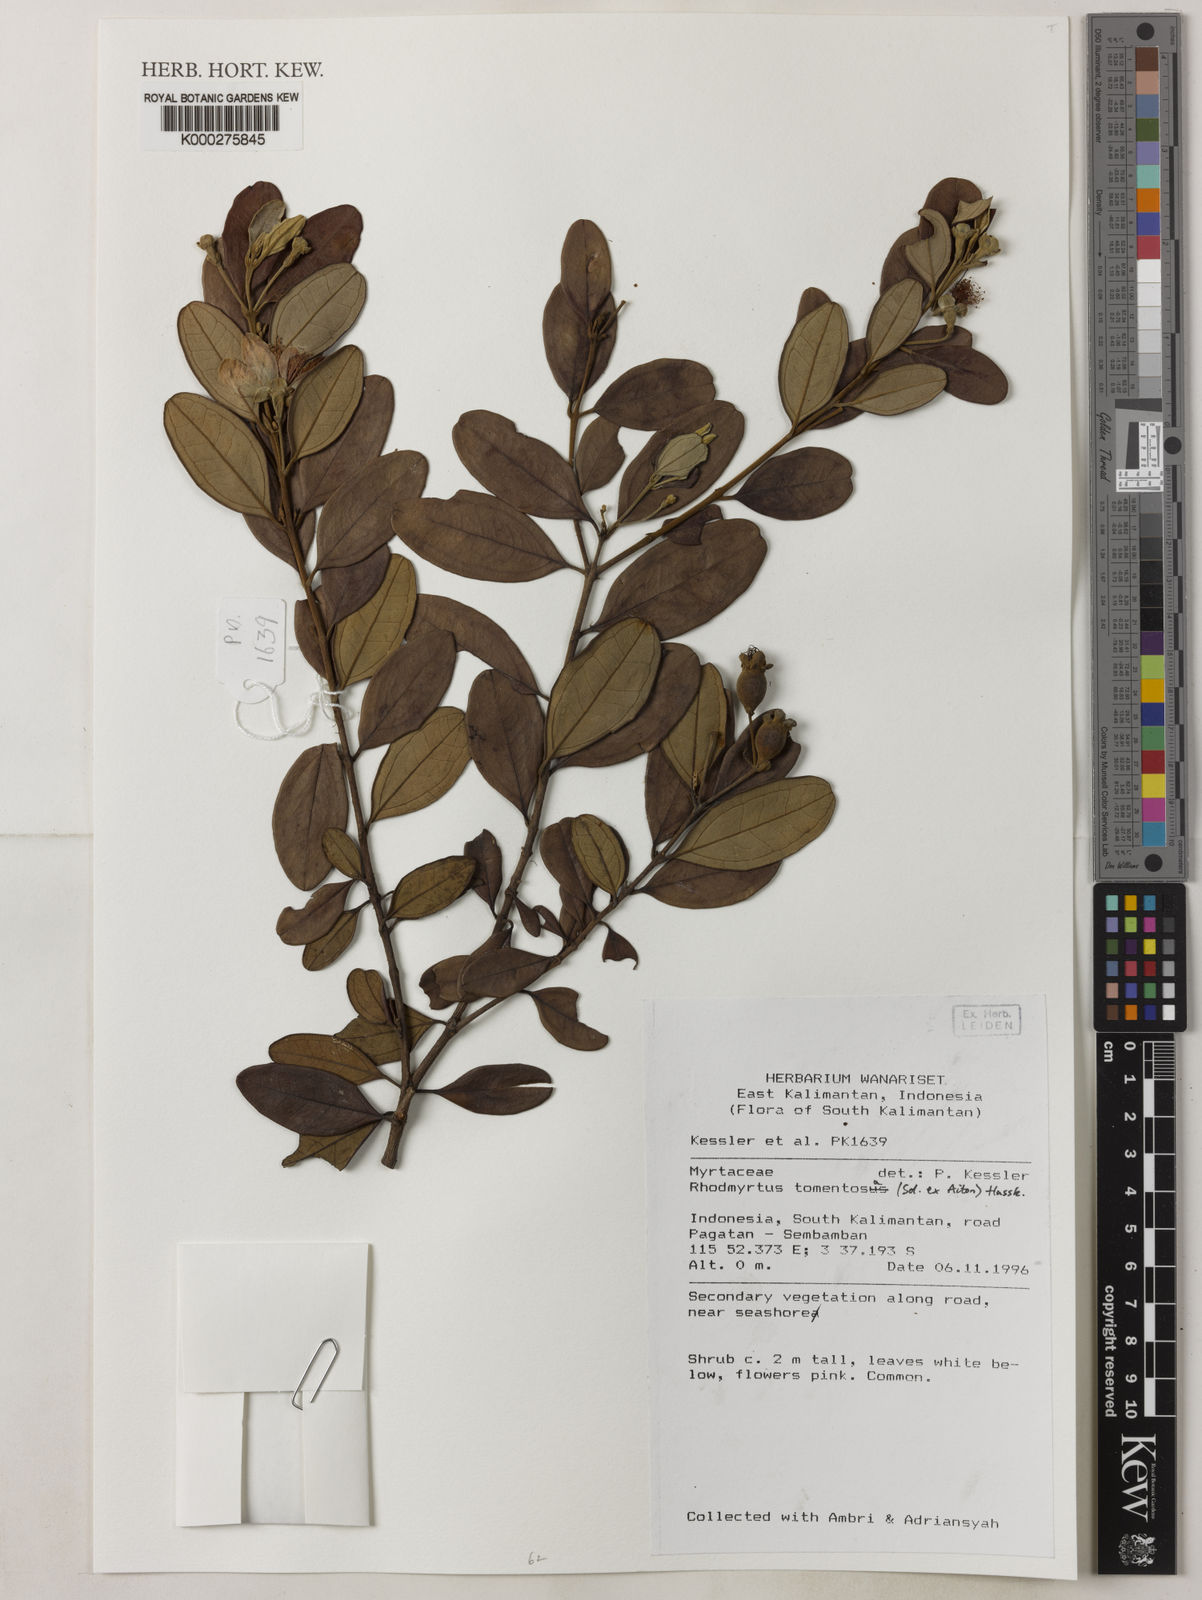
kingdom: Plantae
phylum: Tracheophyta
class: Magnoliopsida
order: Myrtales
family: Myrtaceae
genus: Rhodomyrtus
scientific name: Rhodomyrtus tomentosa
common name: Rose myrtle
